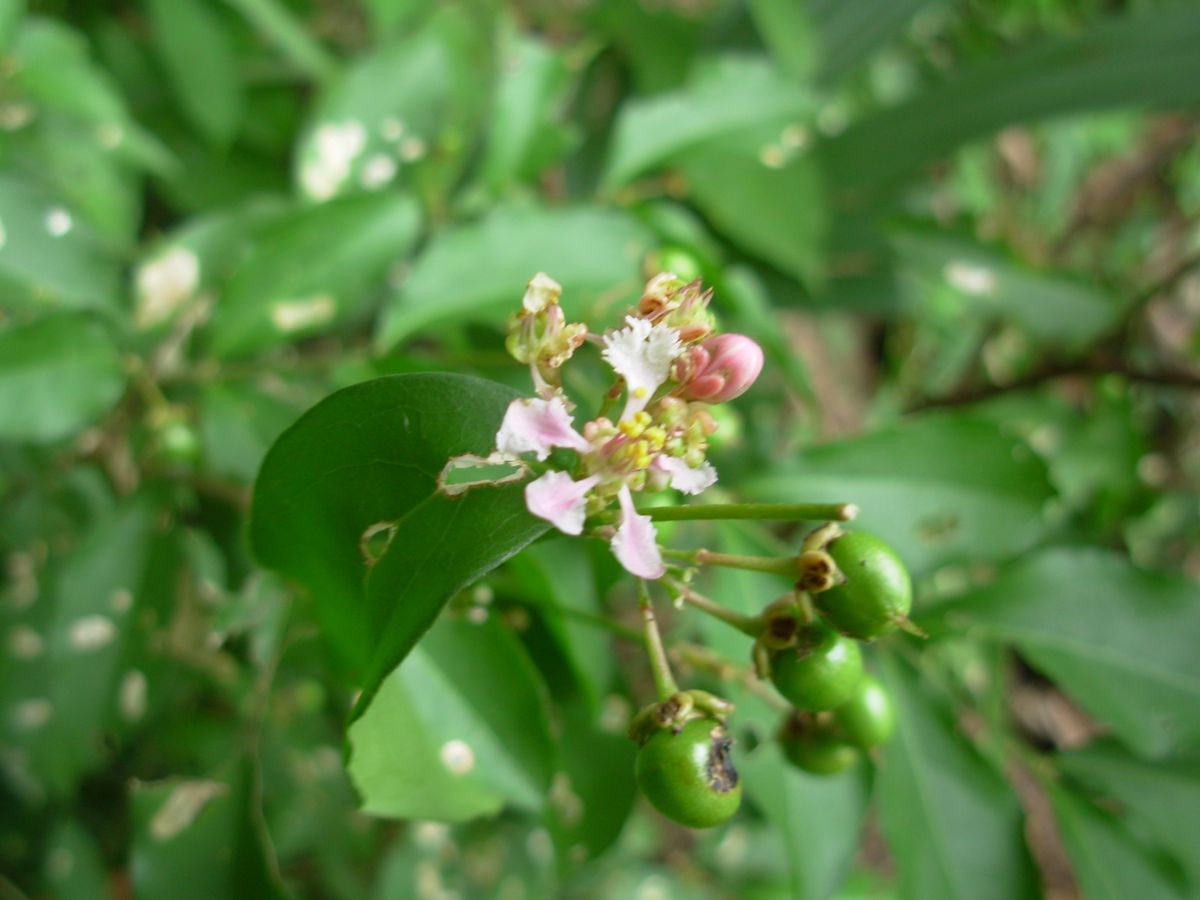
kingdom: Plantae
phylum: Tracheophyta
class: Magnoliopsida
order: Malpighiales
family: Malpighiaceae
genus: Malpighia
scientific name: Malpighia glabra
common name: Barbados cherry
